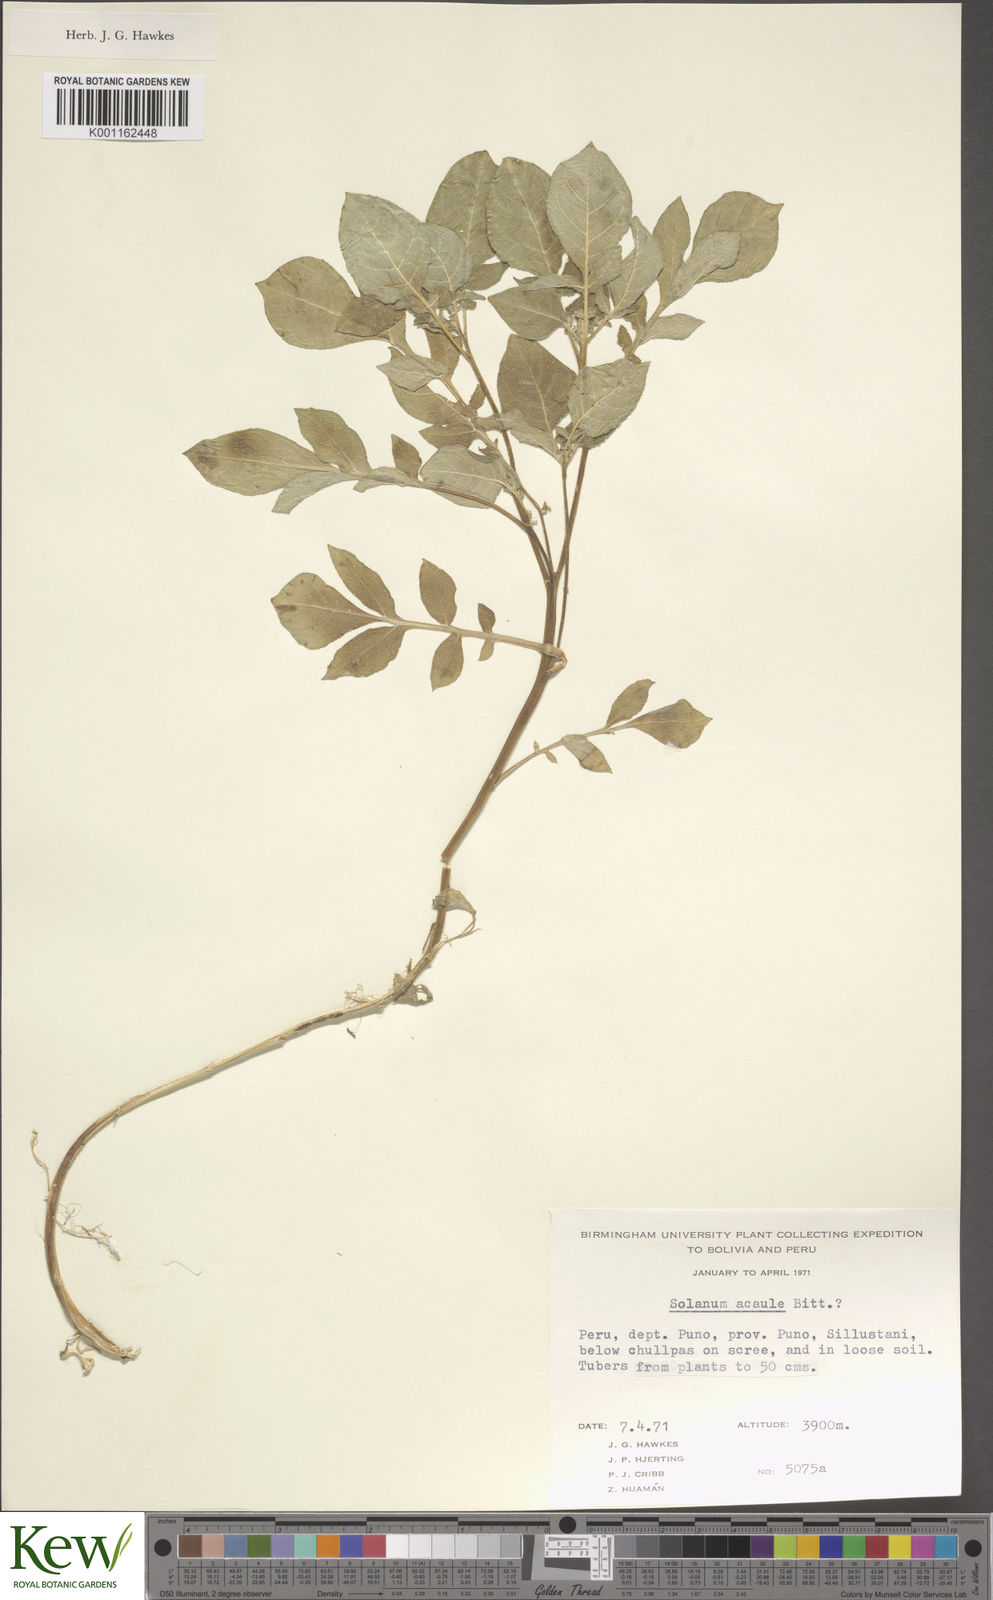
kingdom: Plantae
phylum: Tracheophyta
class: Magnoliopsida
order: Solanales
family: Solanaceae
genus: Solanum
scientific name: Solanum acaule
